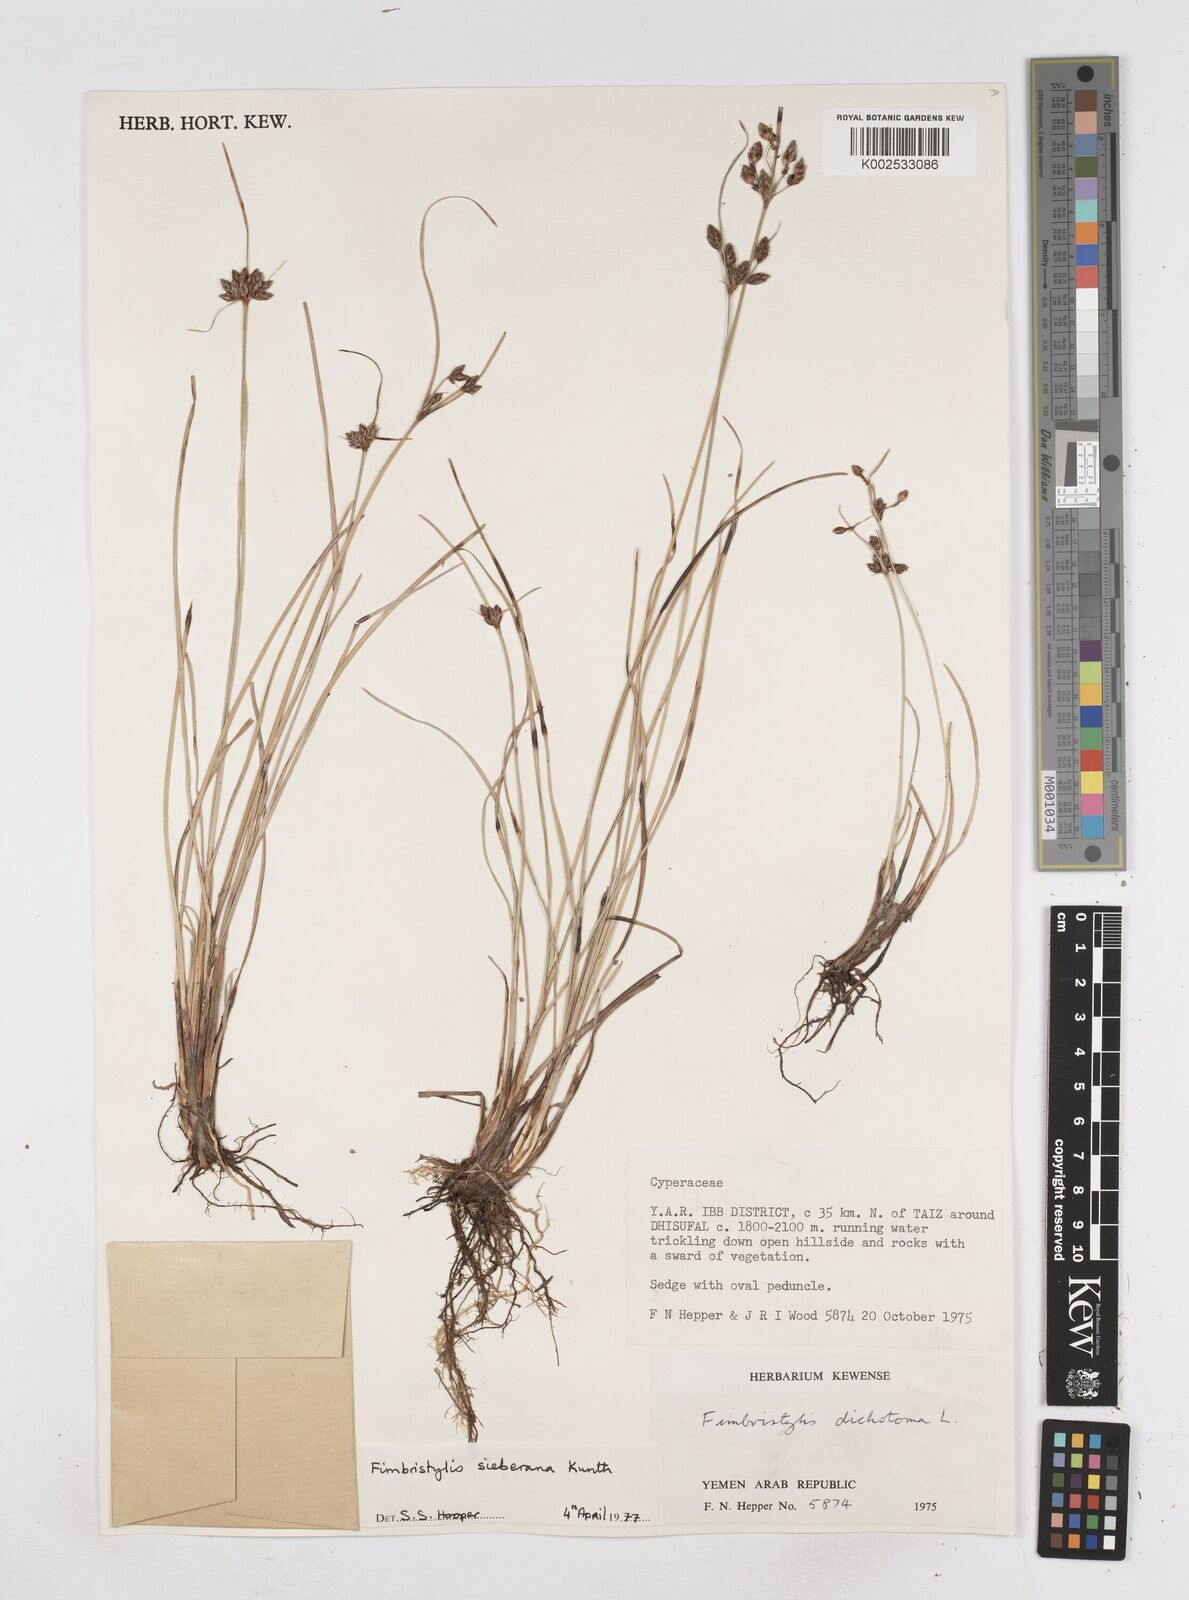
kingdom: Plantae
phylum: Tracheophyta
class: Liliopsida
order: Poales
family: Cyperaceae
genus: Fimbristylis
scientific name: Fimbristylis ferruginea
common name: West indian fimbry
